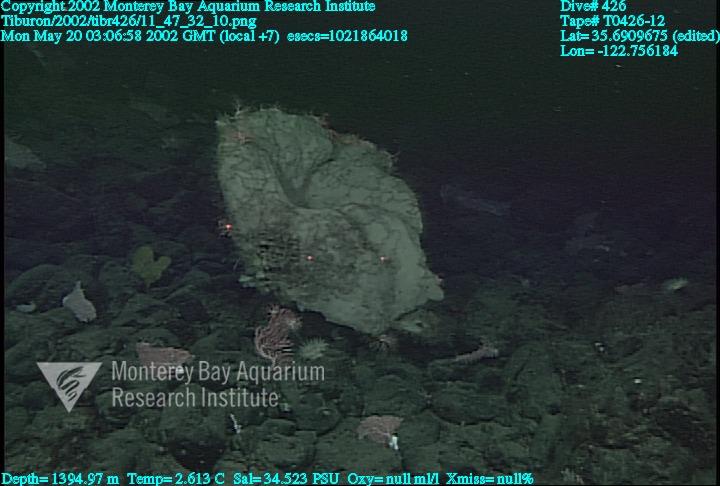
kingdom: Animalia
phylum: Porifera
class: Hexactinellida
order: Sceptrulophora
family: Euretidae
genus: Chonelasma
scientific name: Chonelasma
